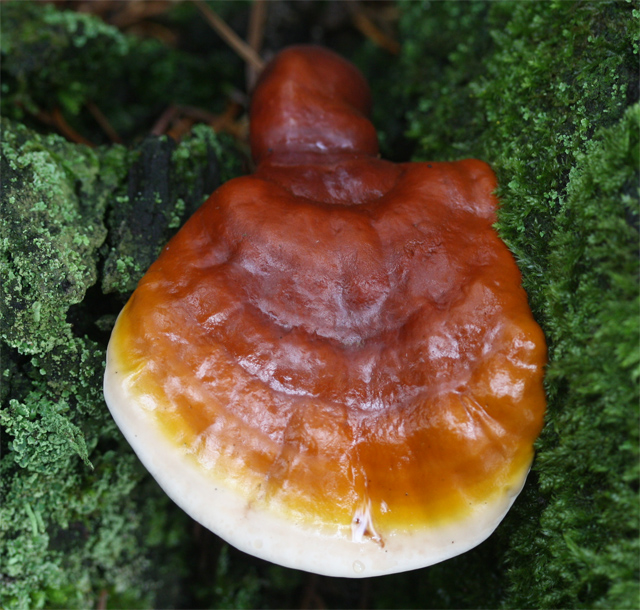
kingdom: Fungi
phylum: Basidiomycota
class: Agaricomycetes
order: Polyporales
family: Polyporaceae
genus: Ganoderma
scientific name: Ganoderma lucidum
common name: skinnende lakporesvamp
